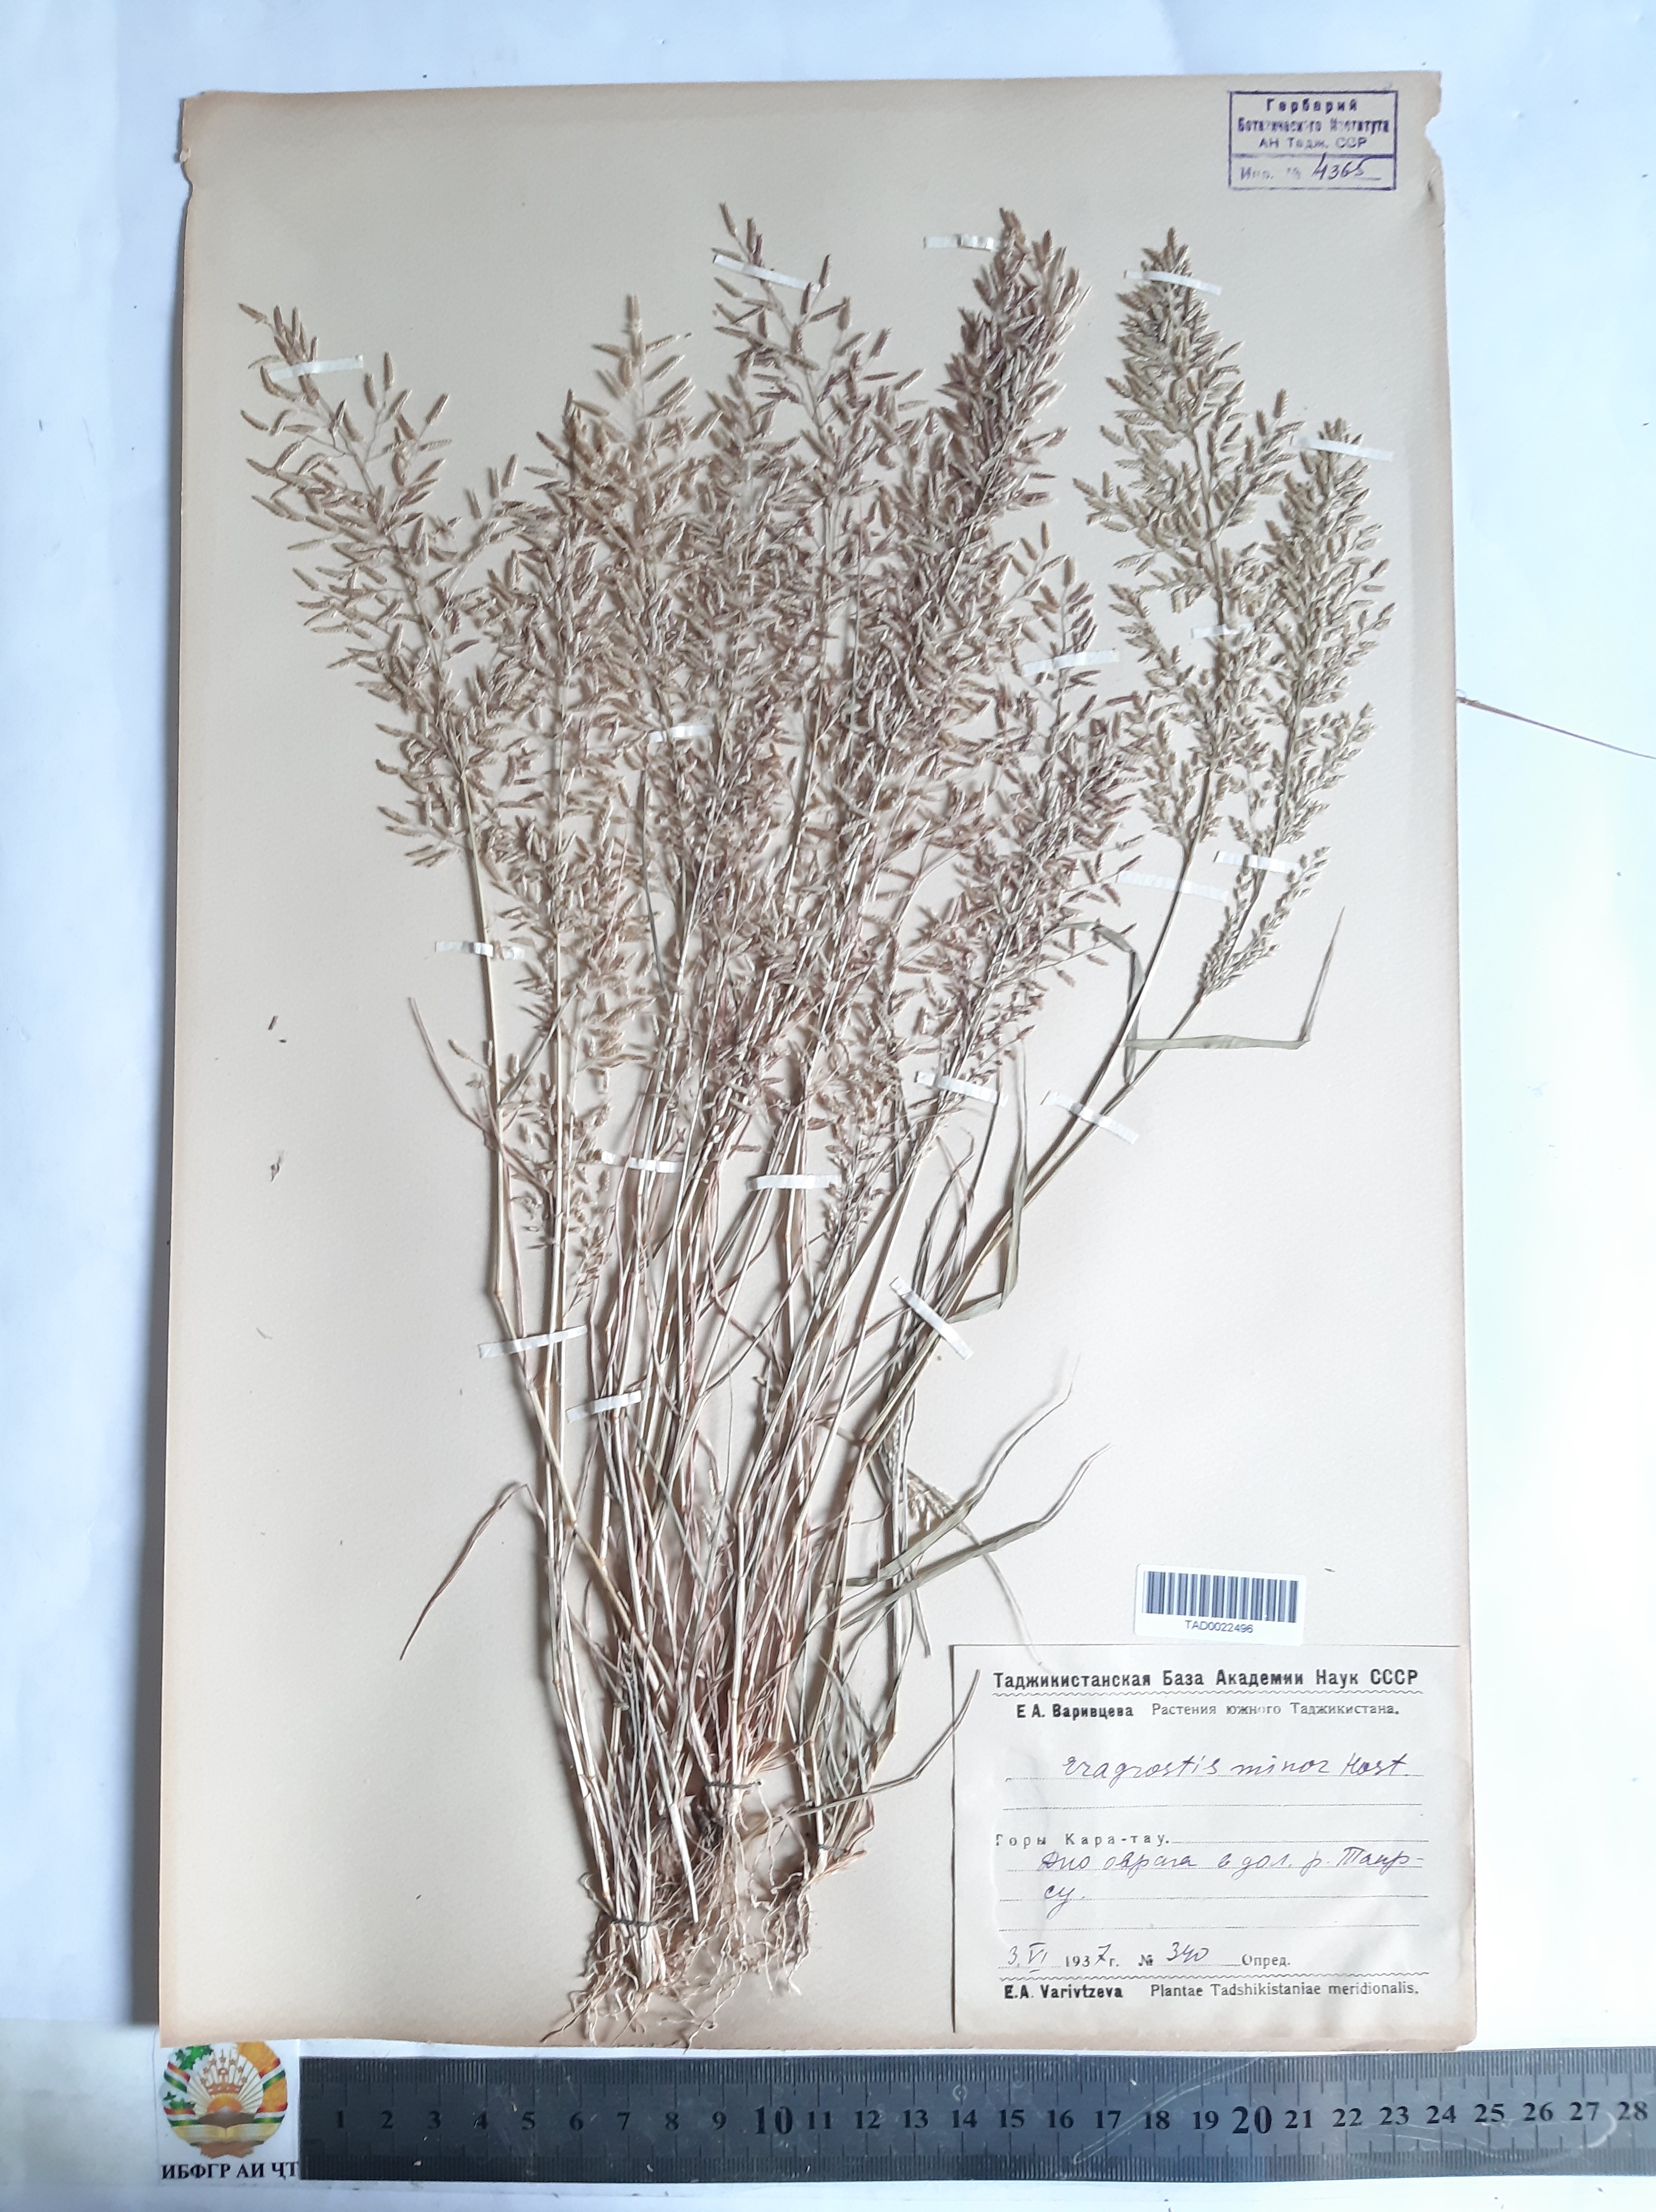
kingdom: Plantae
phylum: Tracheophyta
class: Liliopsida
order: Poales
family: Poaceae
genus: Eragrostis
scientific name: Eragrostis minor
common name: Small love-grass
